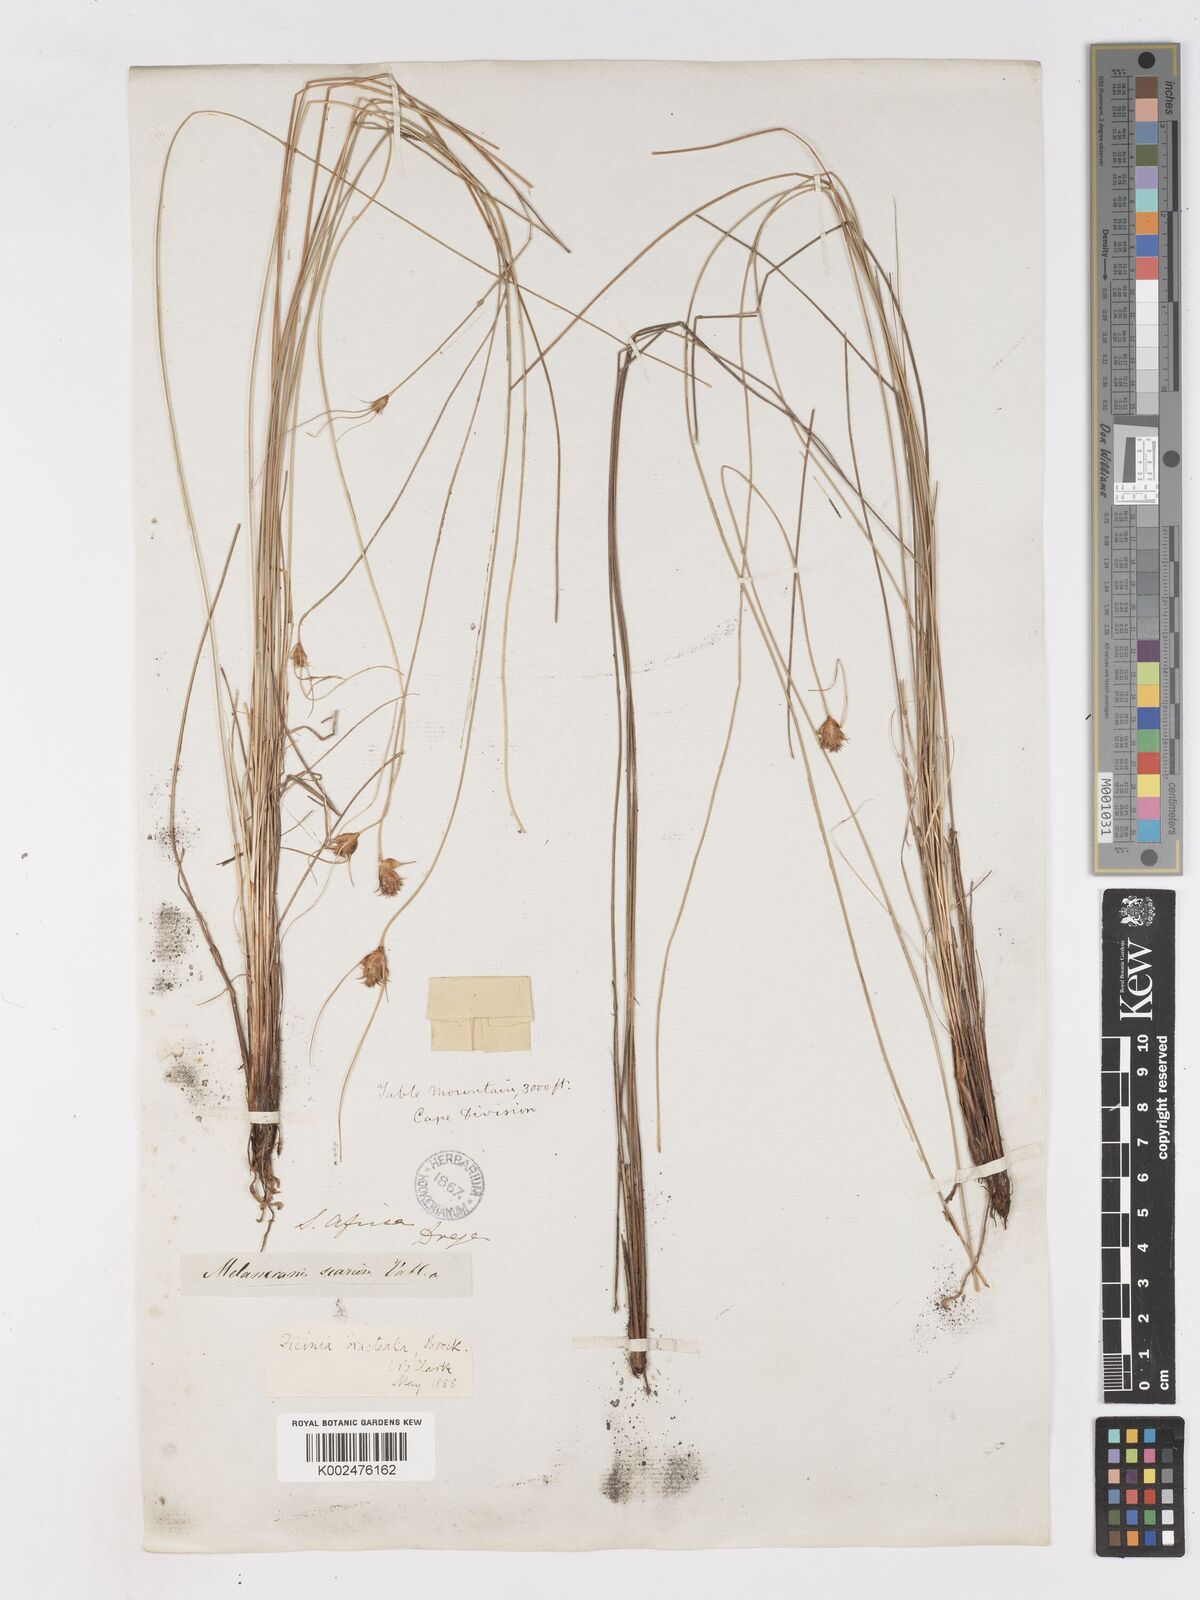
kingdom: Plantae
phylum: Tracheophyta
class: Liliopsida
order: Poales
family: Cyperaceae
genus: Ficinia
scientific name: Ficinia nigrescens
